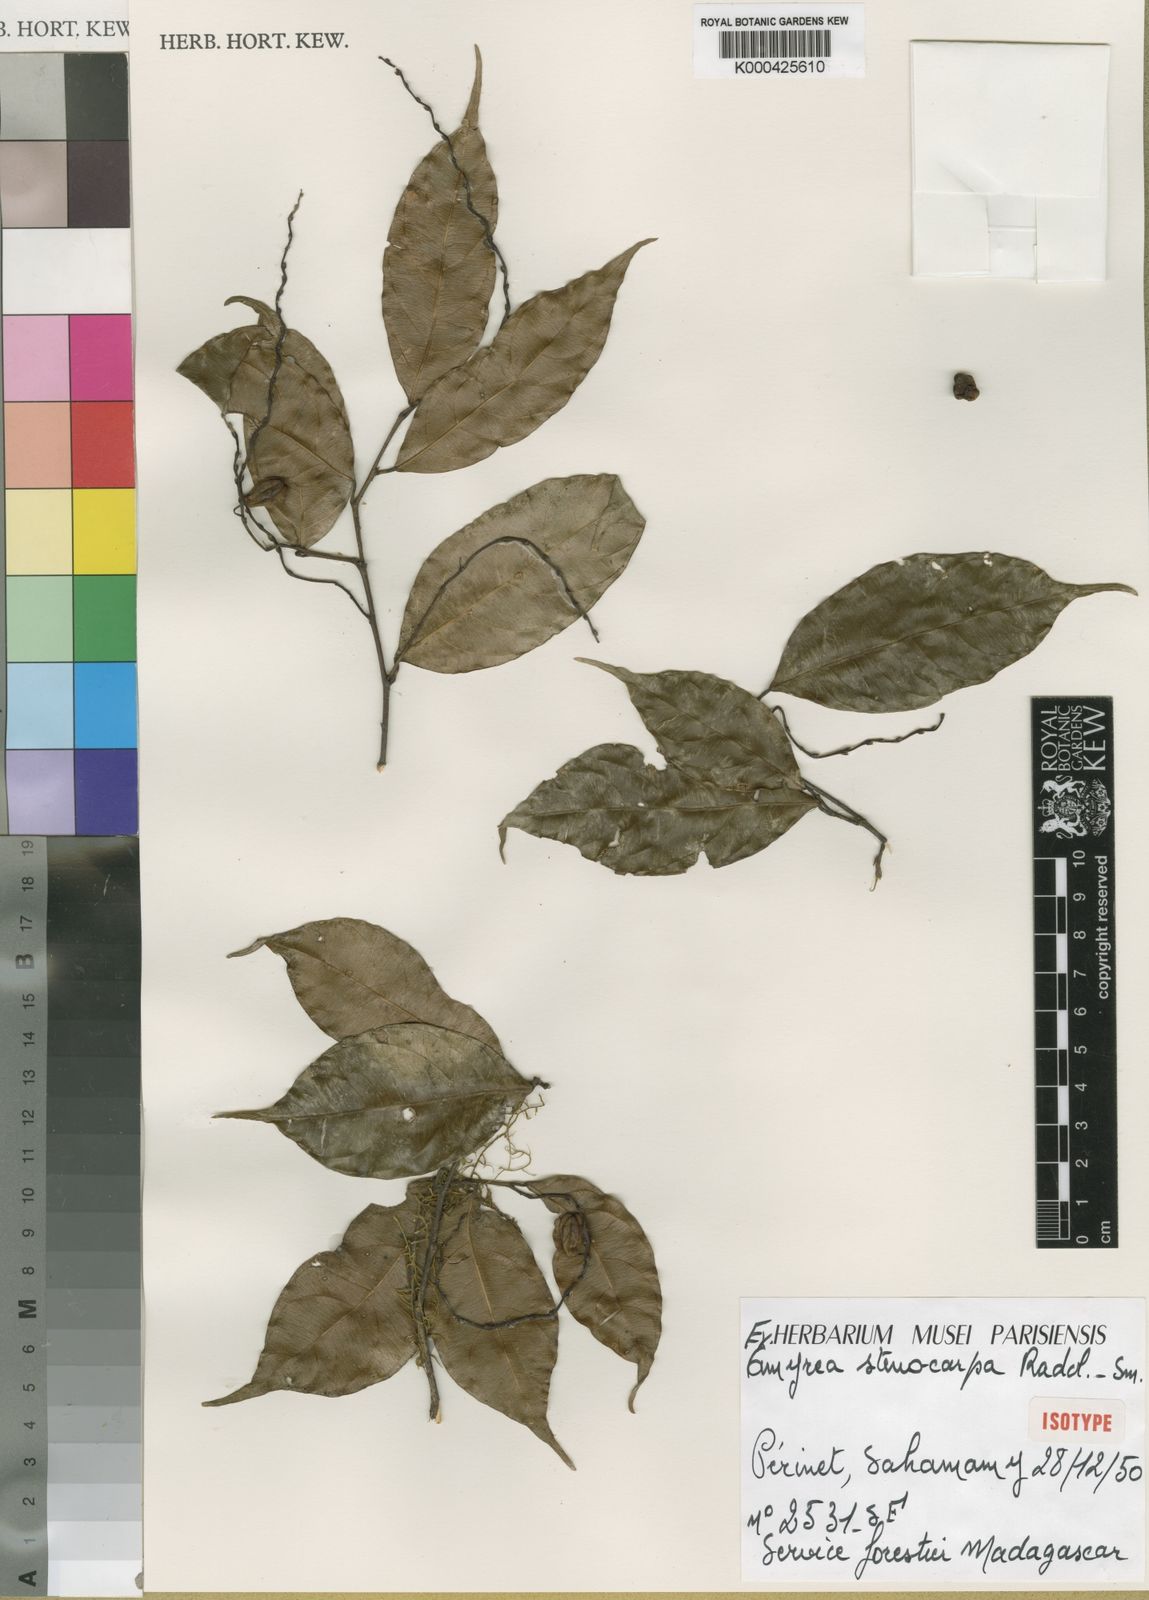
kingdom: Plantae
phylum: Tracheophyta
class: Magnoliopsida
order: Malpighiales
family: Euphorbiaceae
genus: Amyrea
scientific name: Amyrea stenocarpa
